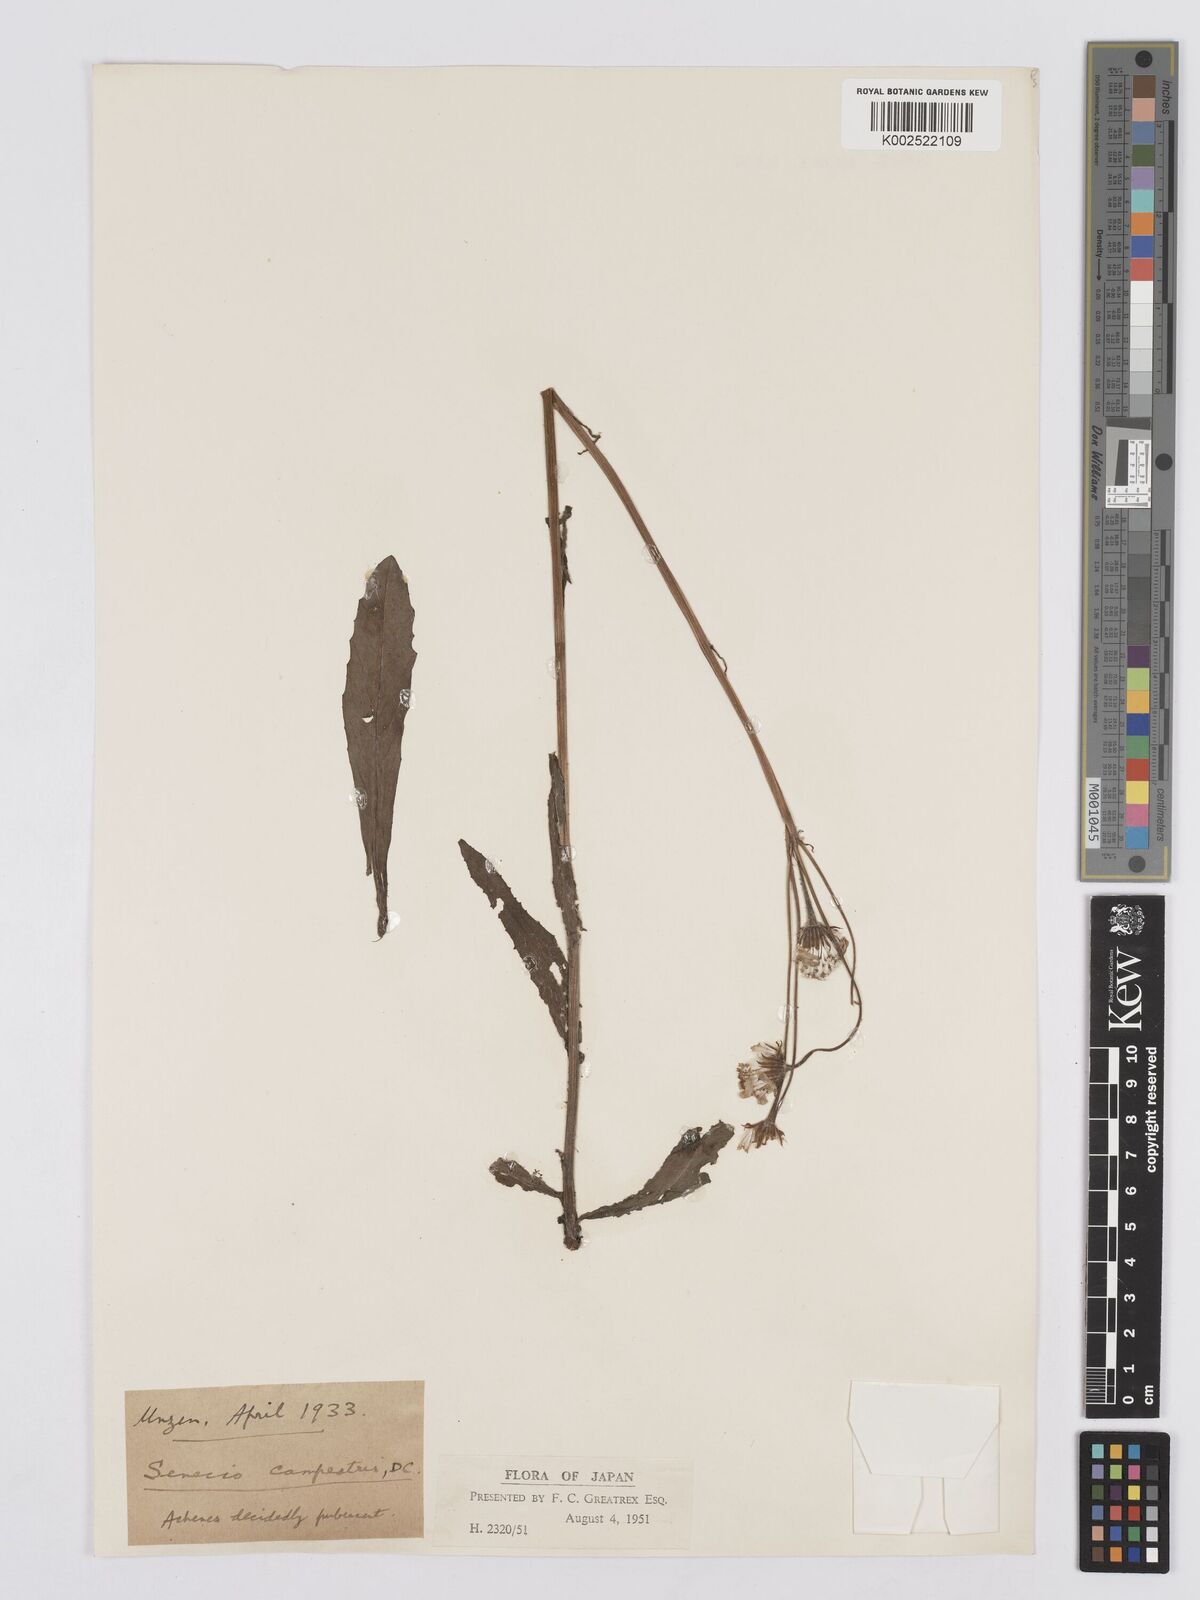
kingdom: Plantae
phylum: Tracheophyta
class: Magnoliopsida
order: Asterales
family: Asteraceae
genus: Tephroseris
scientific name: Tephroseris kirilowii
